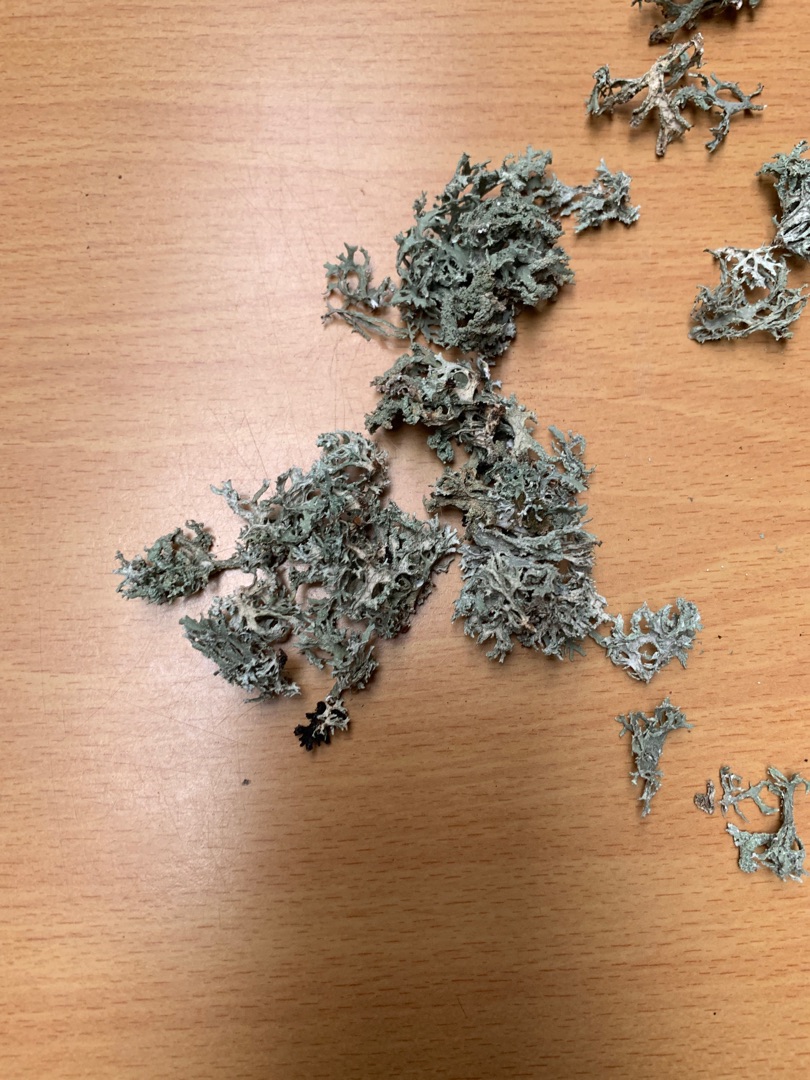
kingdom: Fungi
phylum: Ascomycota
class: Lecanoromycetes
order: Lecanorales
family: Parmeliaceae
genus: Evernia
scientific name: Evernia prunastri
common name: Almindelig slåenlav
